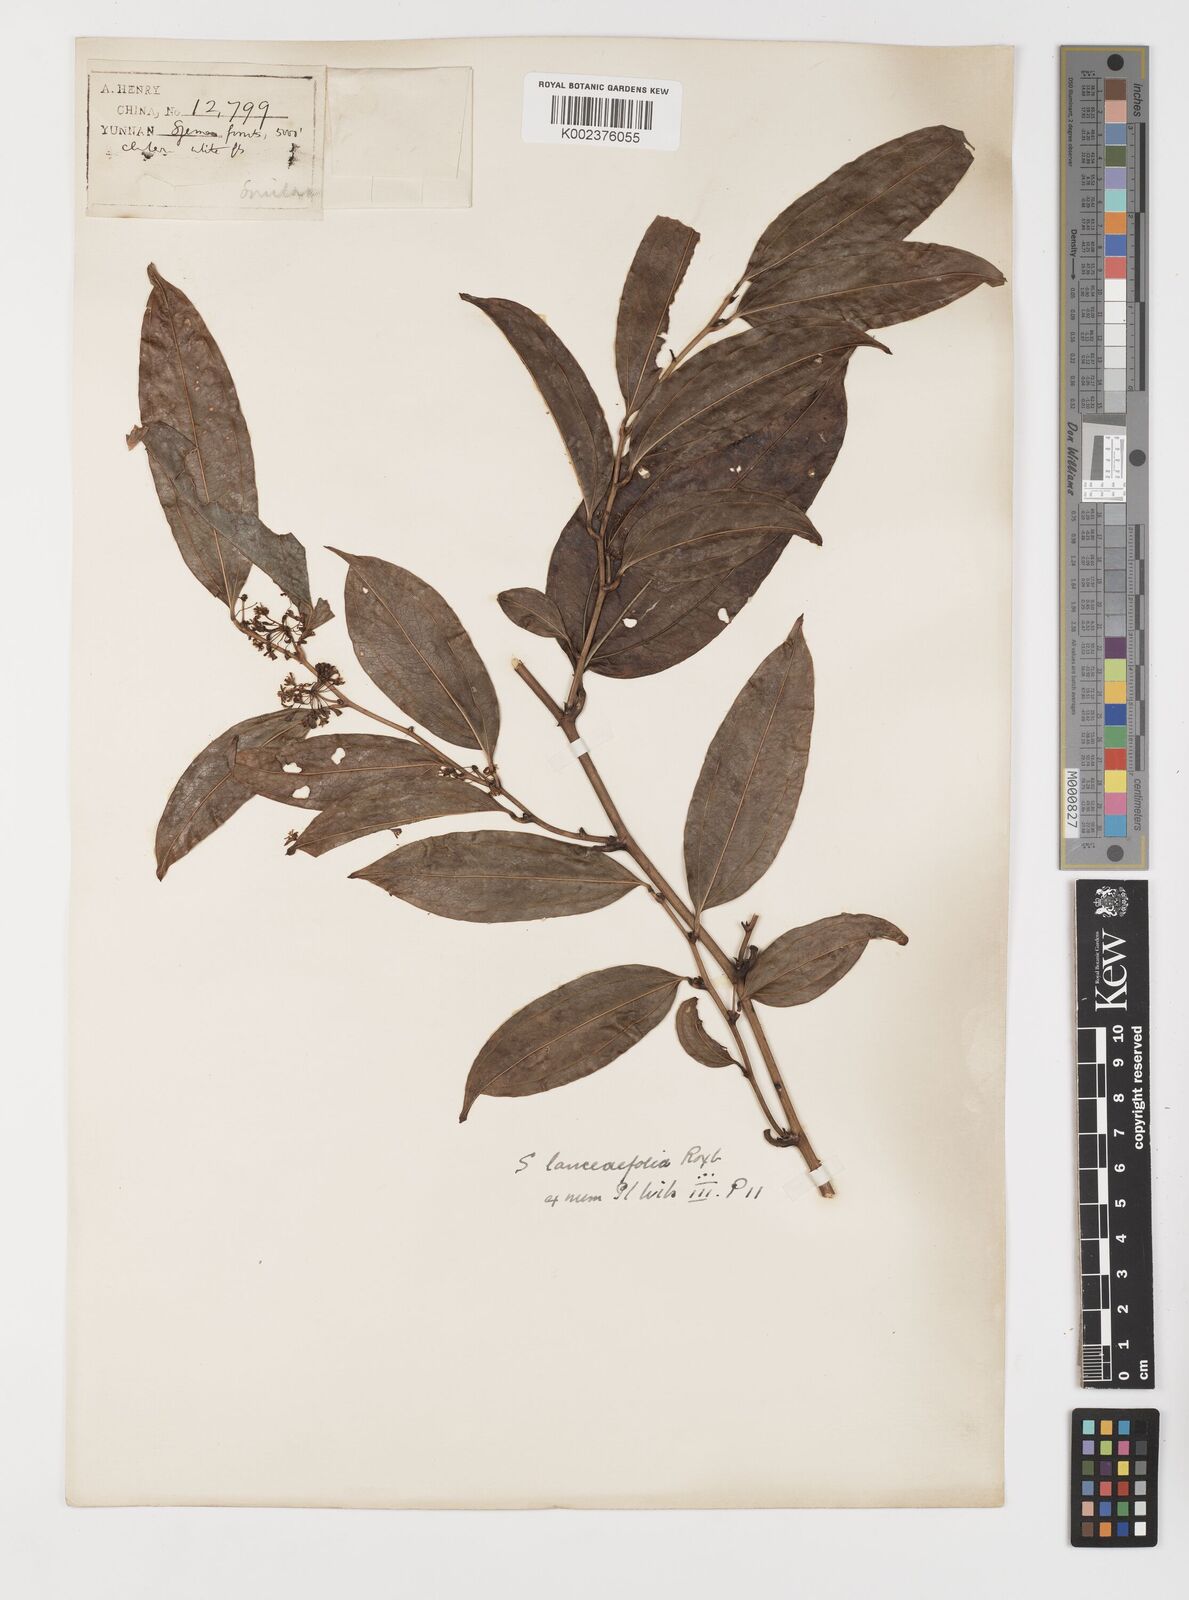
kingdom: Plantae
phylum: Tracheophyta
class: Liliopsida
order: Liliales
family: Smilacaceae
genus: Smilax
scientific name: Smilax lanceifolia
